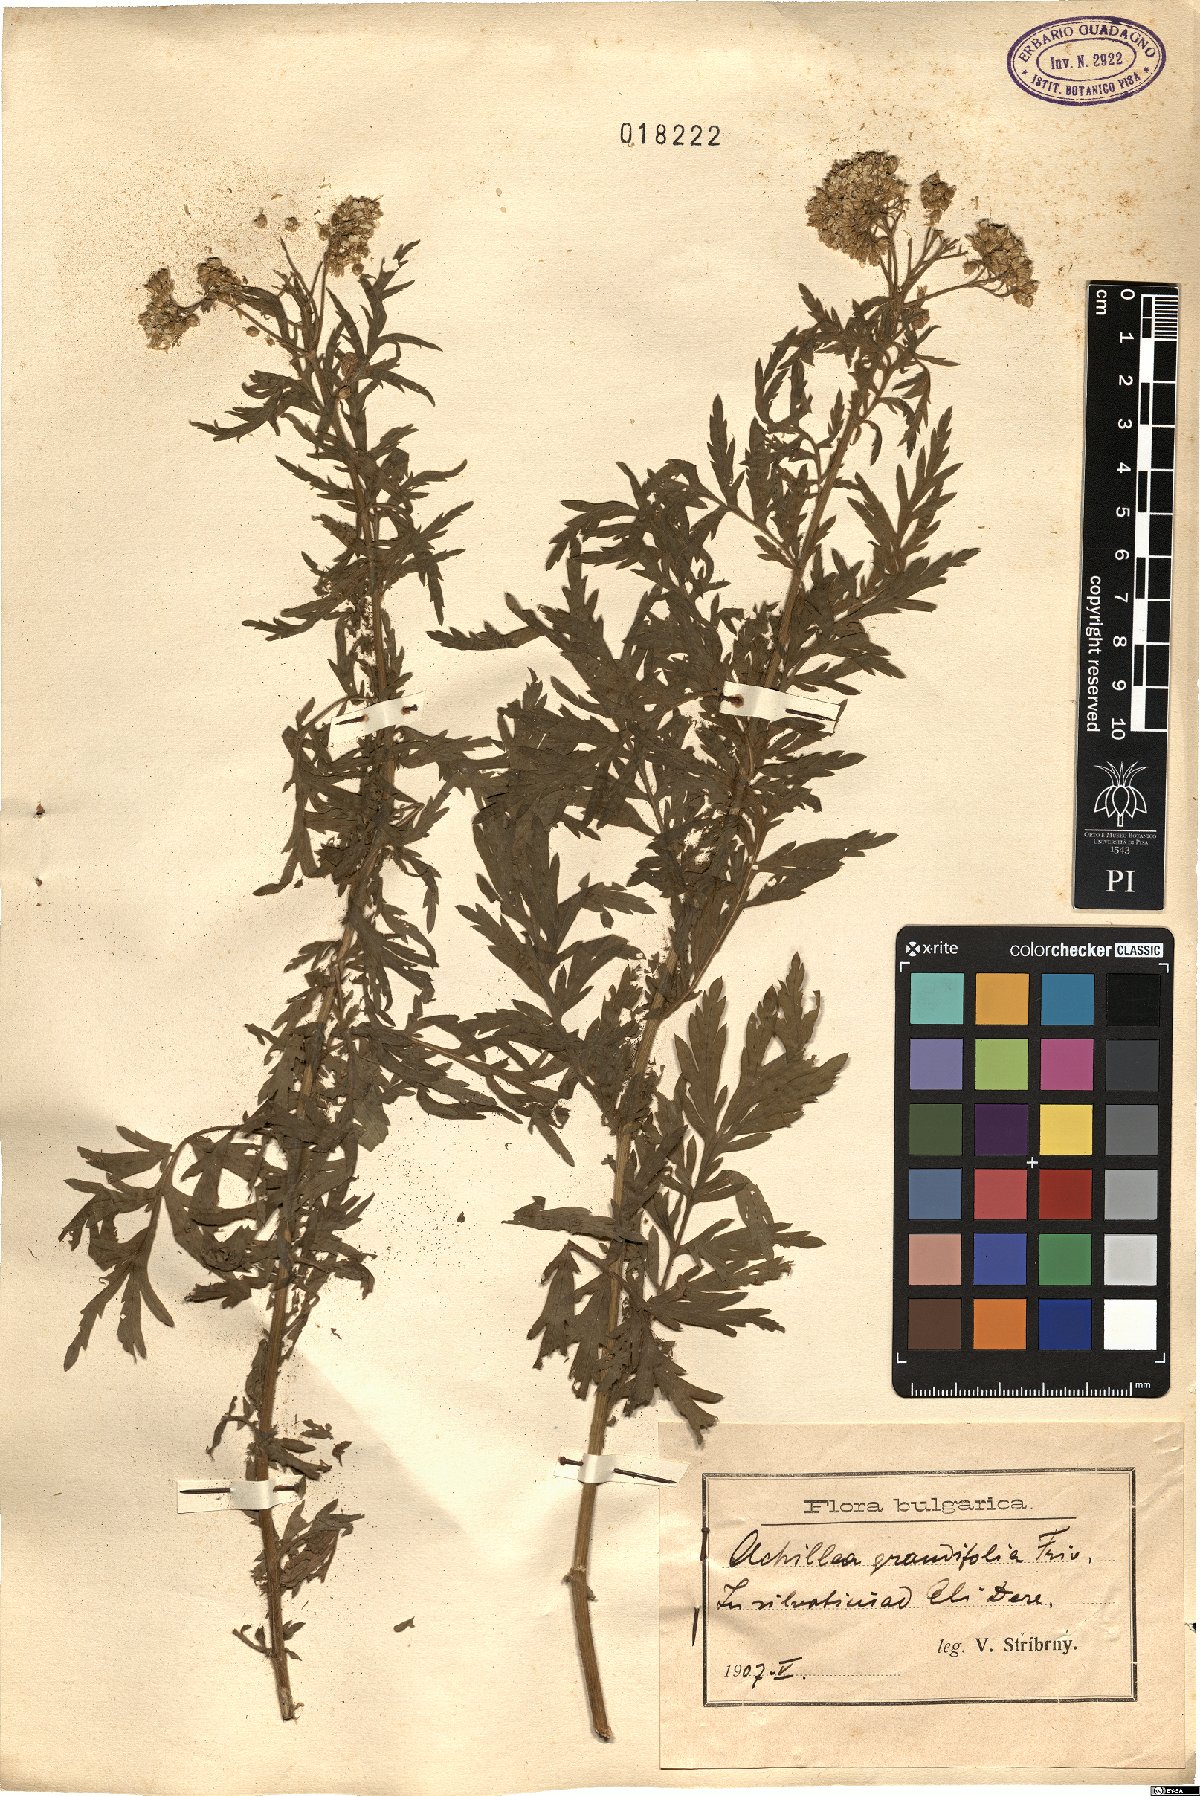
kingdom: Plantae
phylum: Tracheophyta
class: Magnoliopsida
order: Asterales
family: Asteraceae
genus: Achillea
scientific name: Achillea grandifolia
